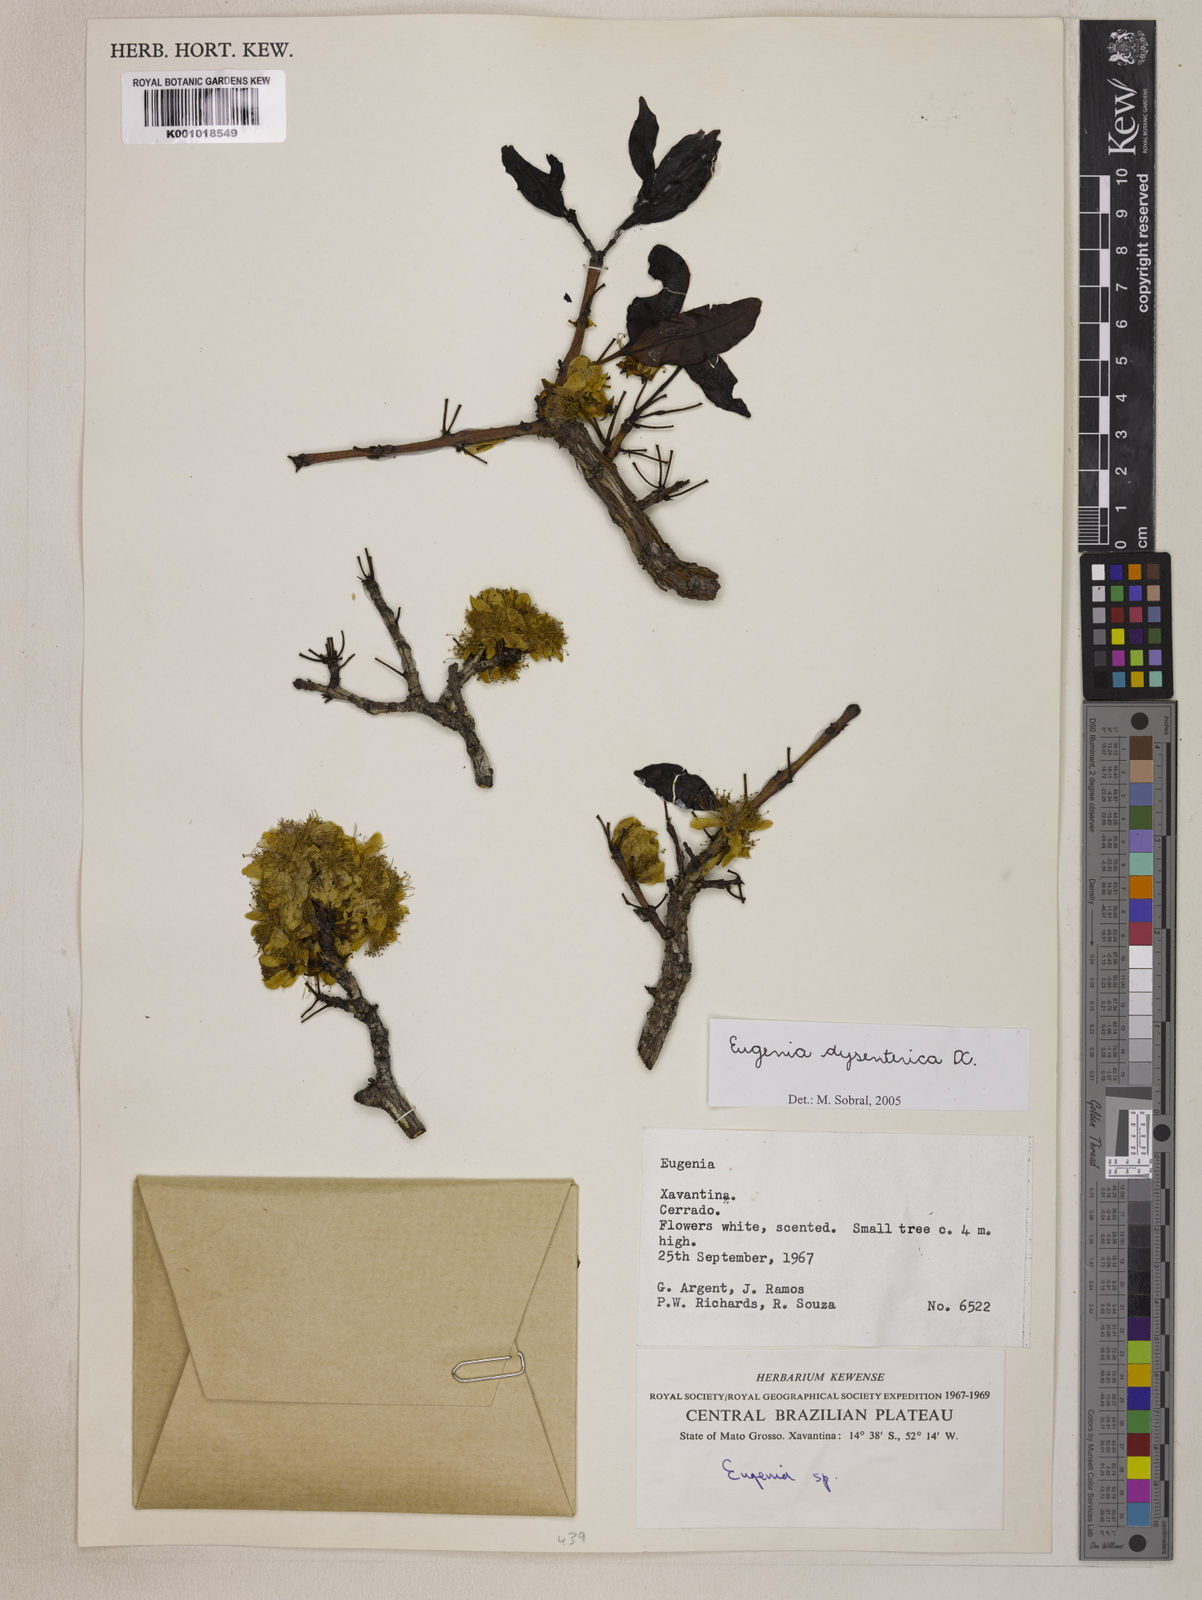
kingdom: Plantae
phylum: Tracheophyta
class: Magnoliopsida
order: Myrtales
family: Myrtaceae
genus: Eugenia
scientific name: Eugenia dysenterica
